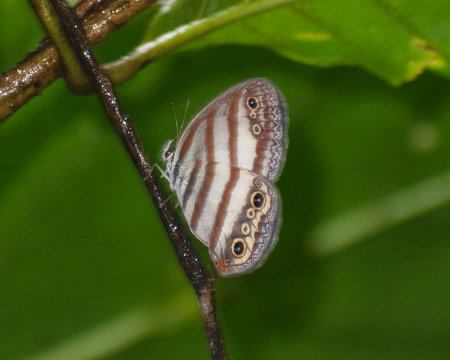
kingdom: Animalia
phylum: Arthropoda
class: Insecta
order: Lepidoptera
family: Nymphalidae
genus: Euptychia
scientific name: Euptychia mollina
